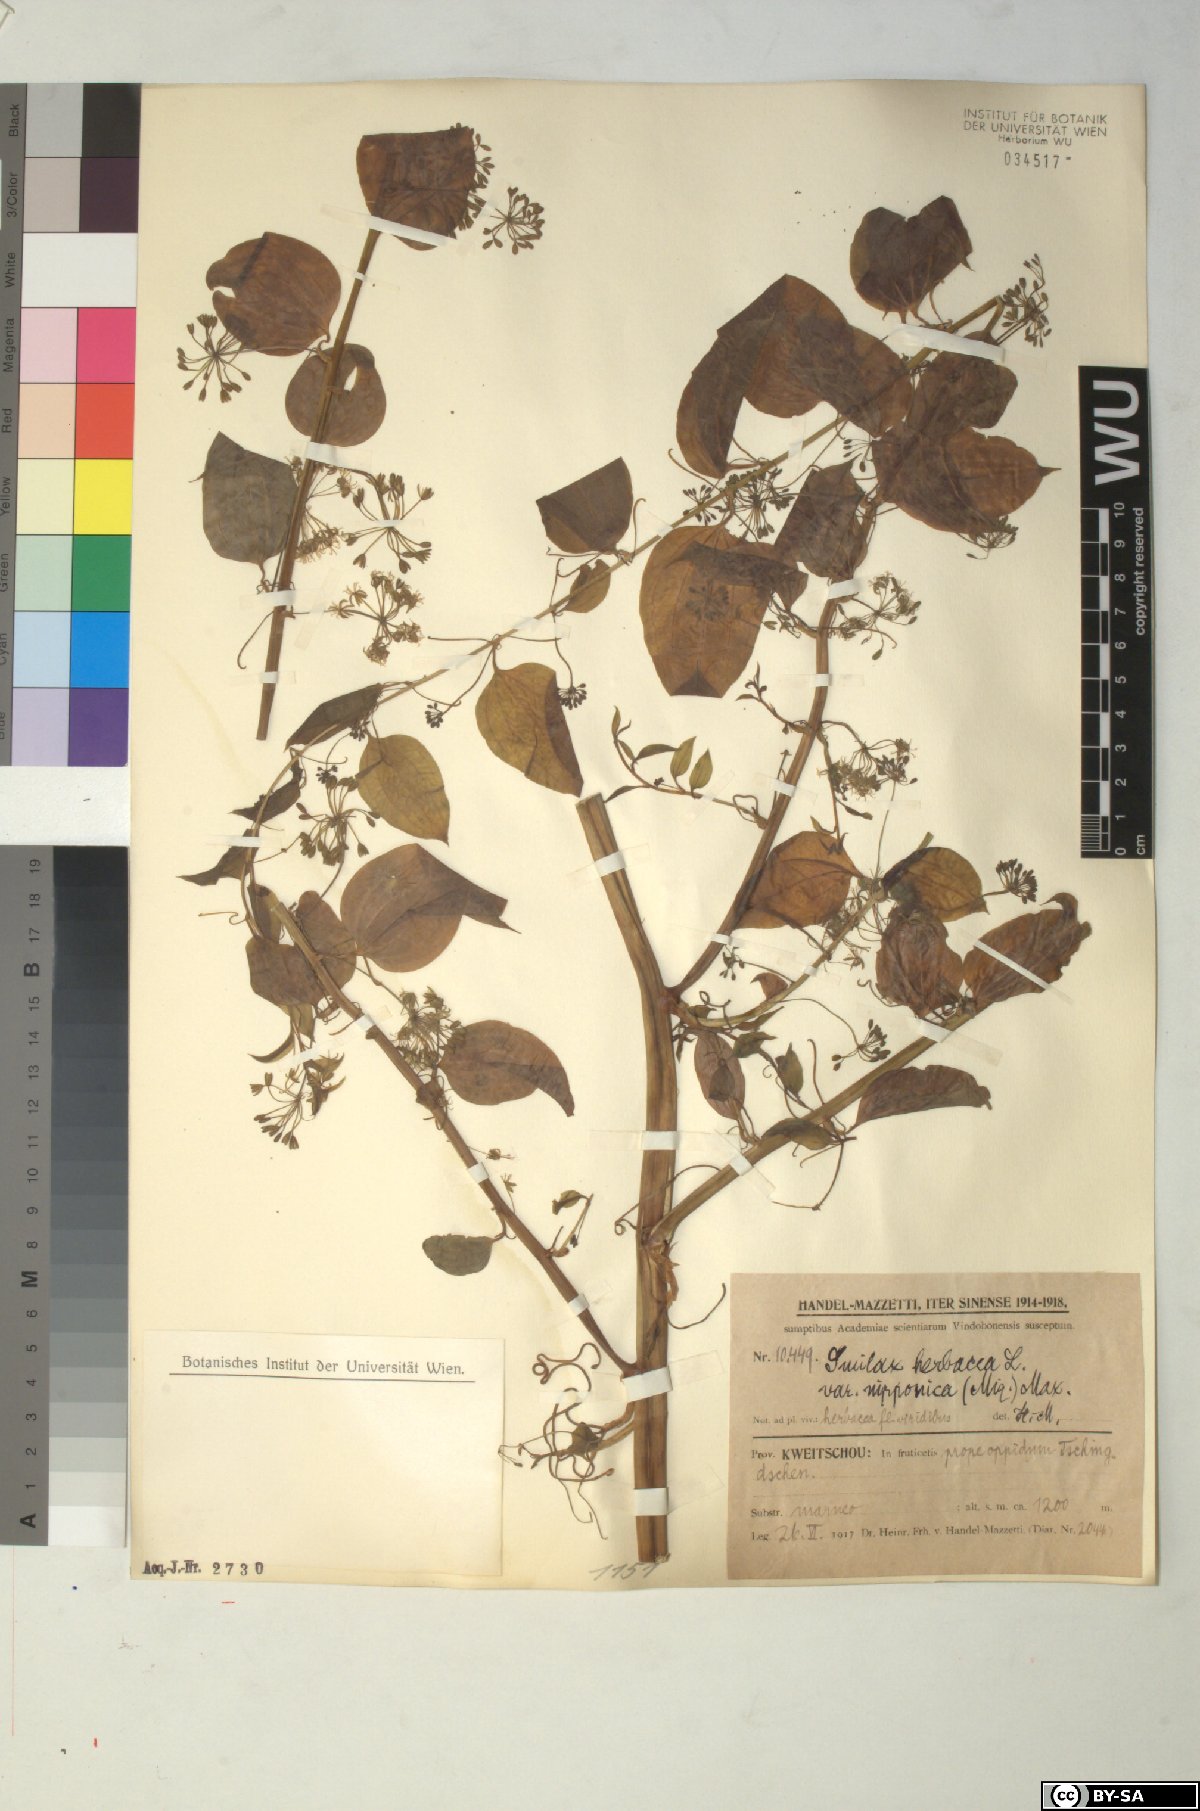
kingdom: Plantae
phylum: Tracheophyta
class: Liliopsida
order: Liliales
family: Smilacaceae
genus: Smilax
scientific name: Smilax nipponica
